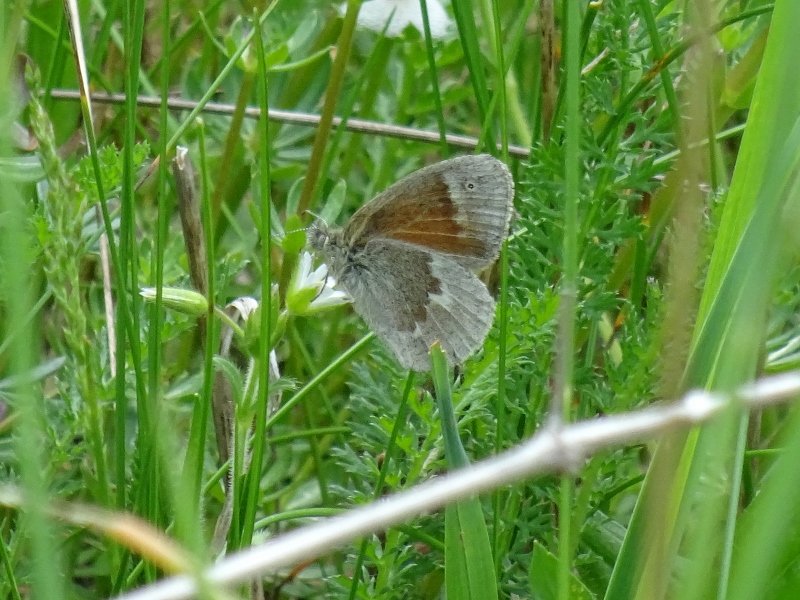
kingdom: Animalia
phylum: Arthropoda
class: Insecta
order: Lepidoptera
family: Nymphalidae
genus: Coenonympha
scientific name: Coenonympha tullia
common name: Large Heath
